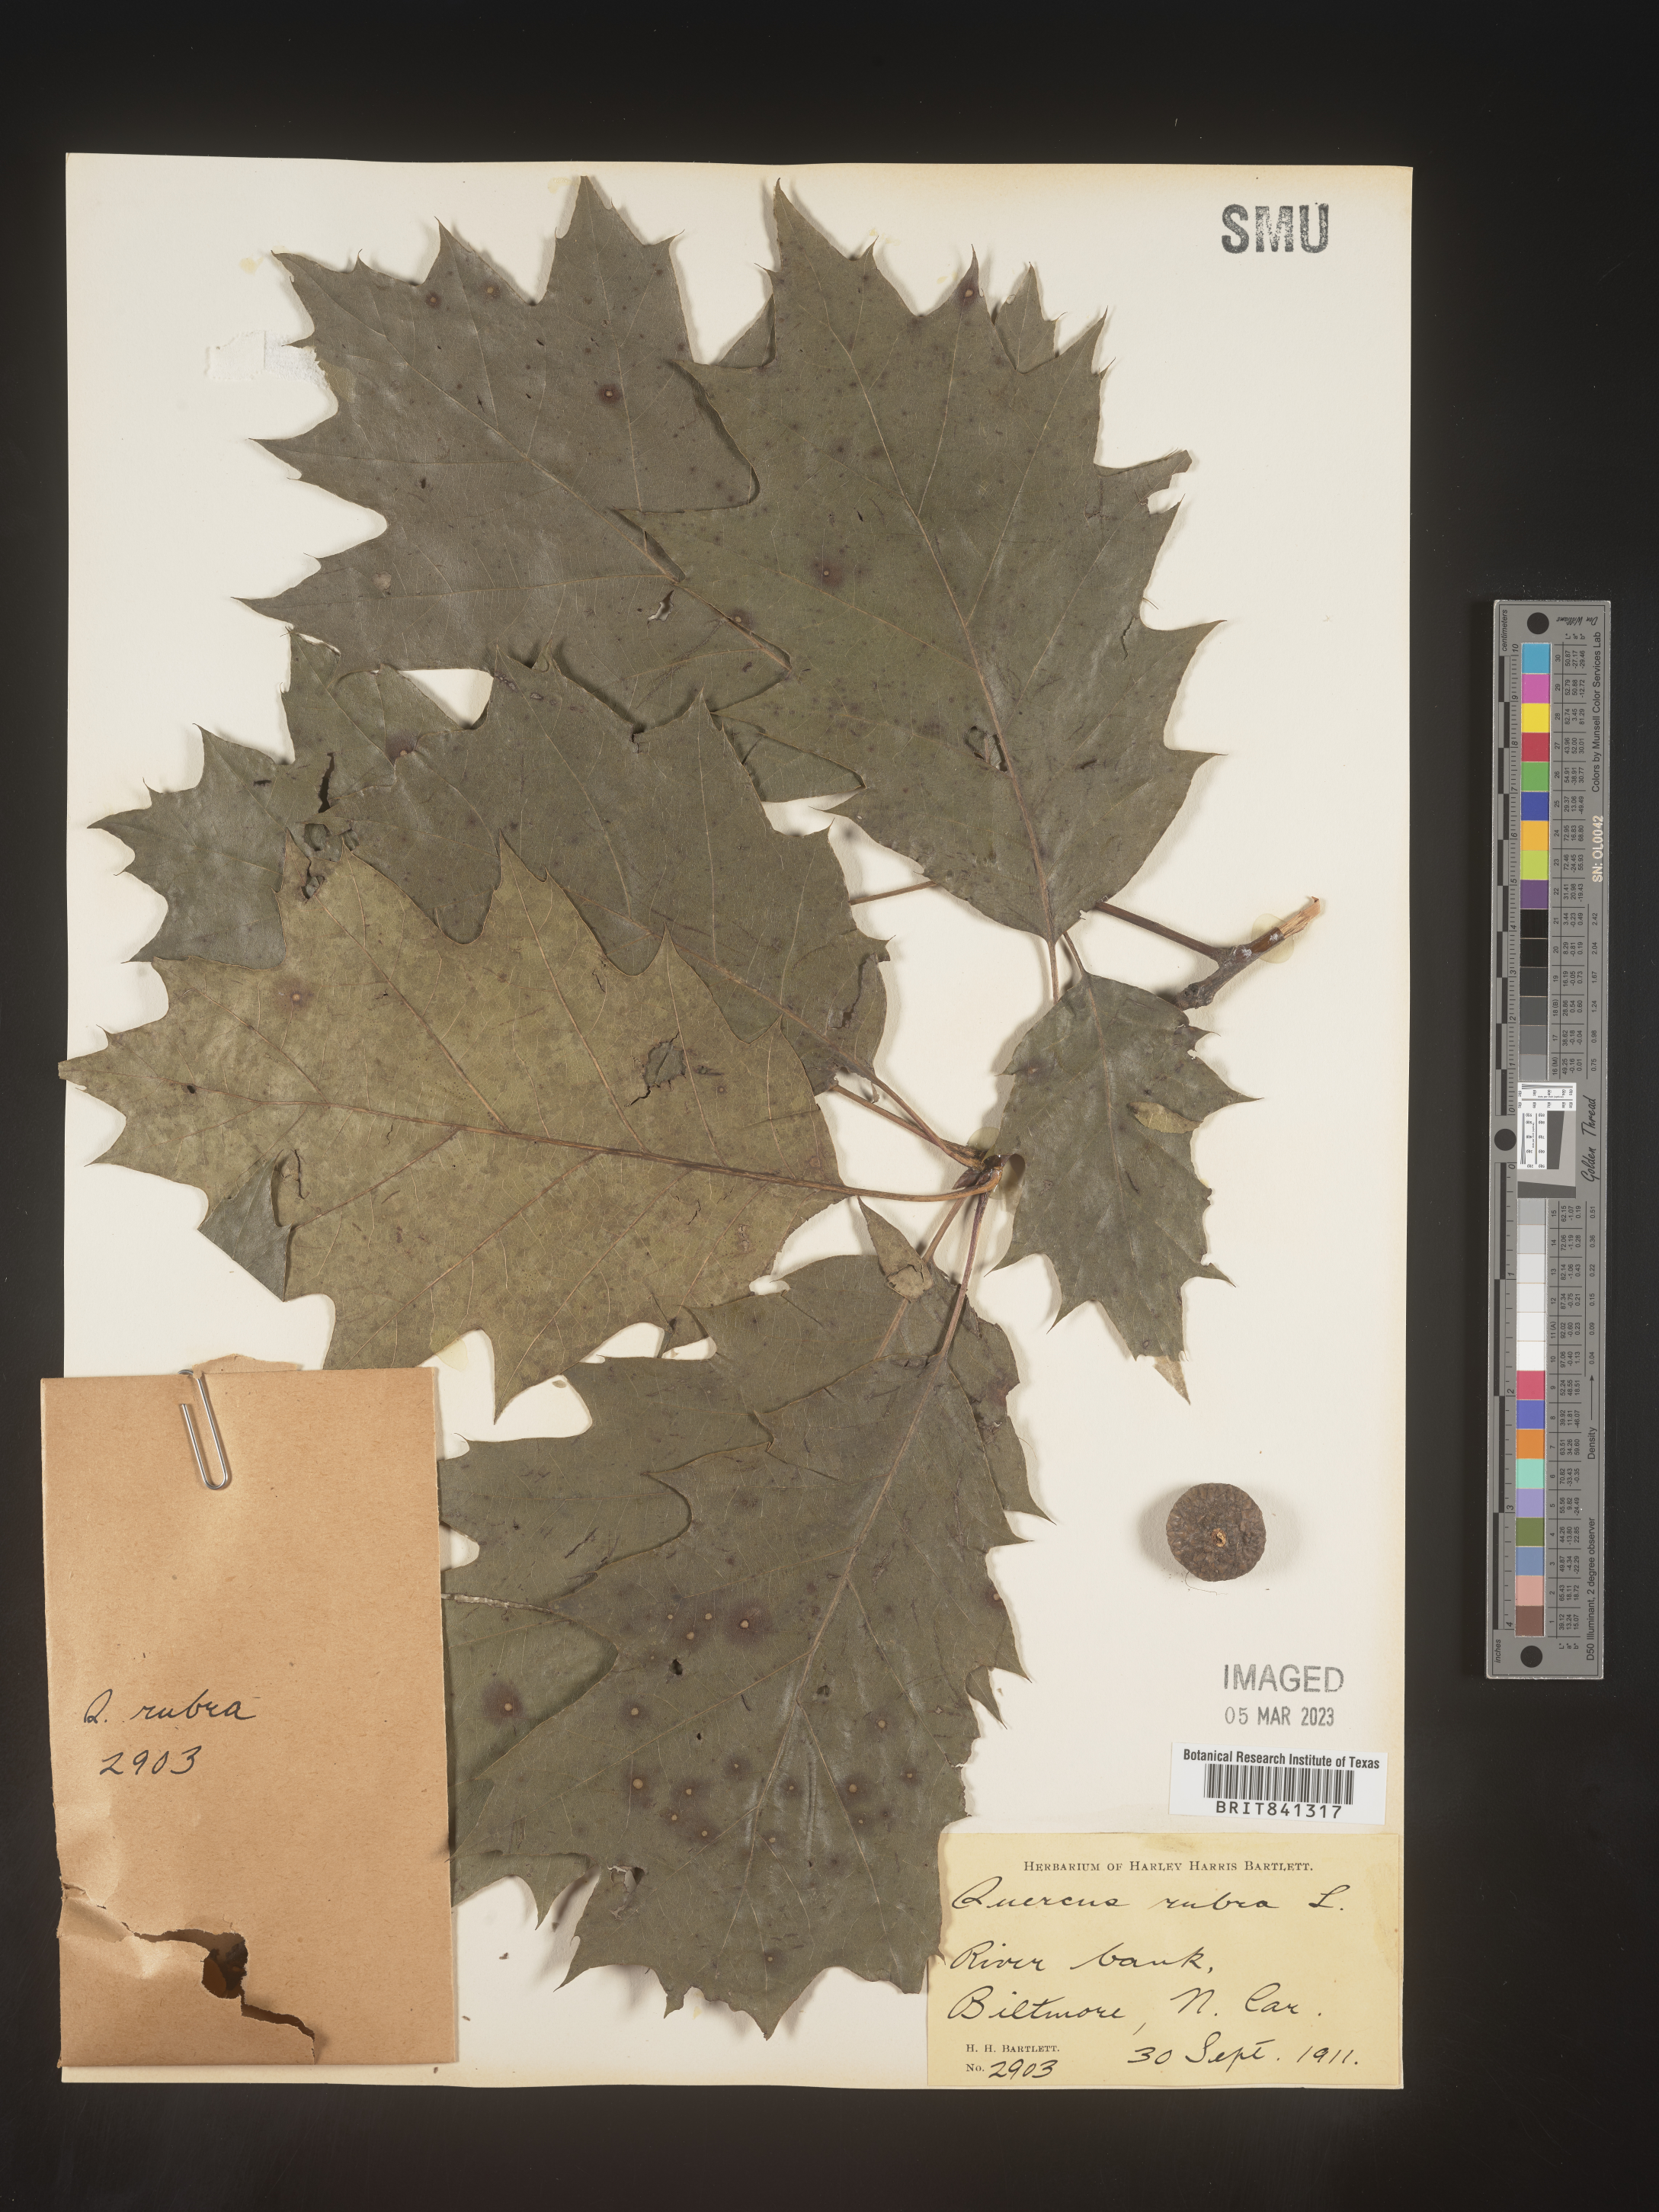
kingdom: Plantae
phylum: Tracheophyta
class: Magnoliopsida
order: Fagales
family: Fagaceae
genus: Quercus
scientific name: Quercus rubra
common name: Red oak
